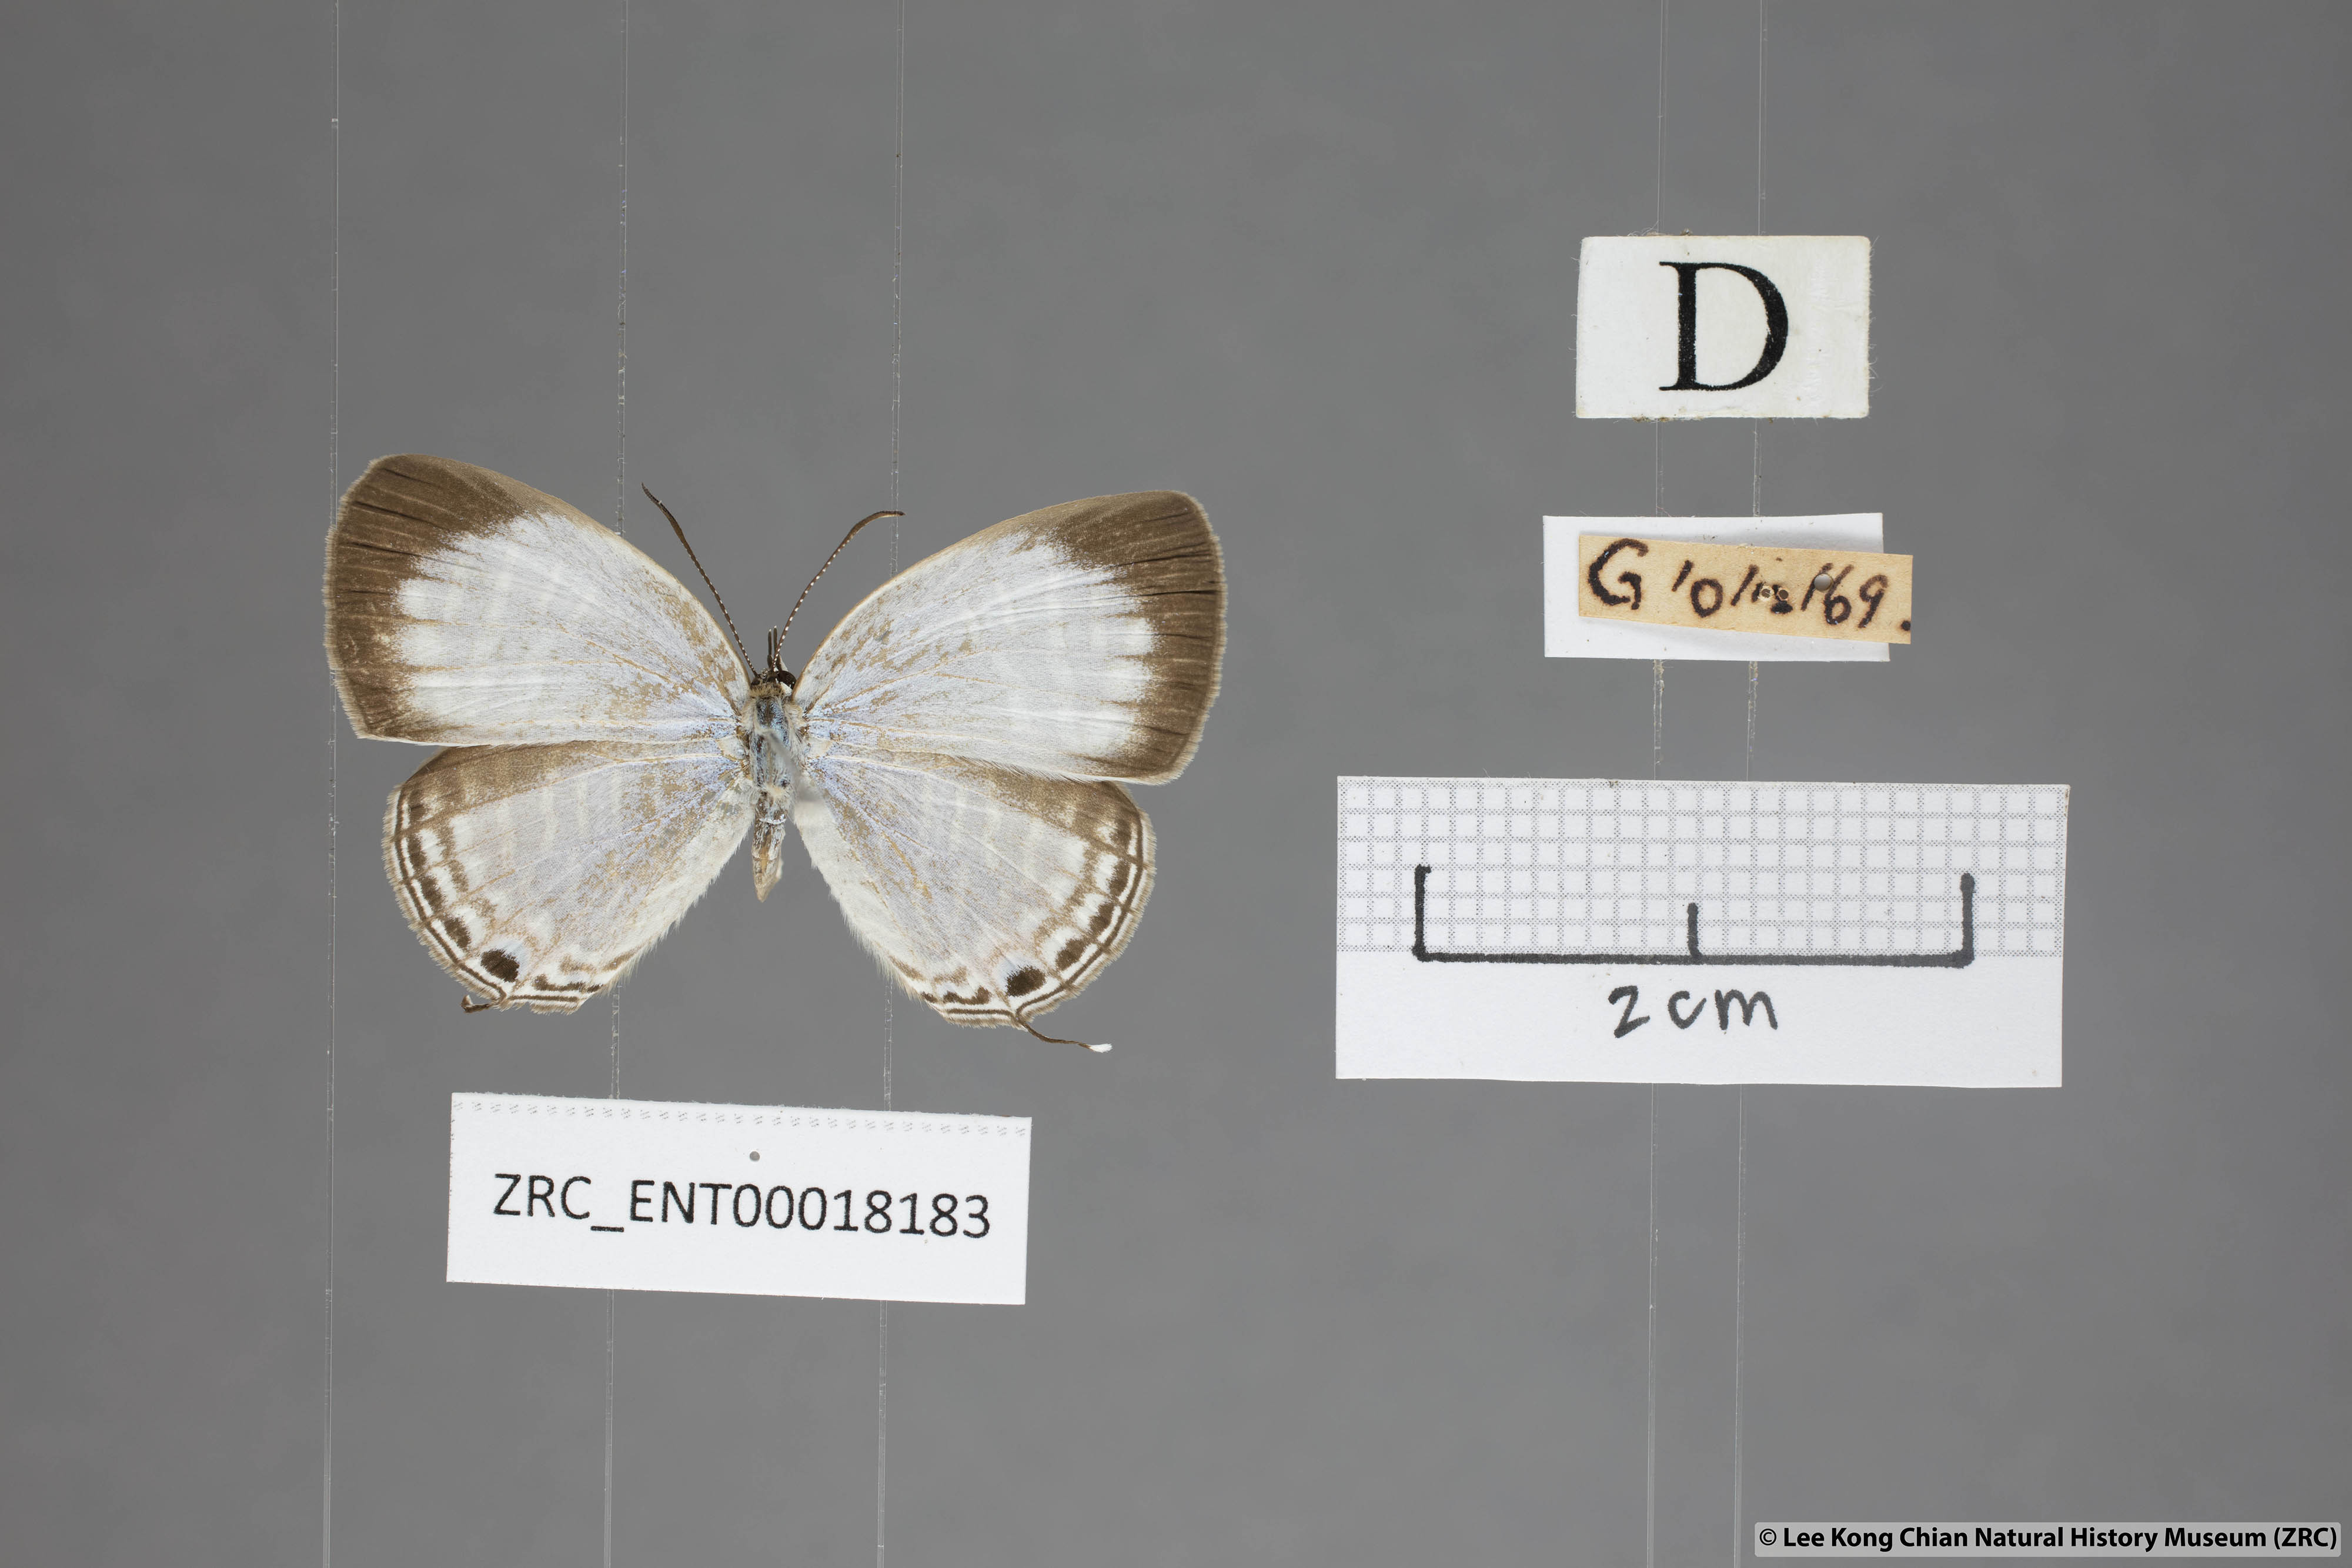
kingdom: Animalia
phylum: Arthropoda
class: Insecta
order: Lepidoptera
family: Lycaenidae
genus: Jamides
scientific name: Jamides pura
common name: White cerulean
